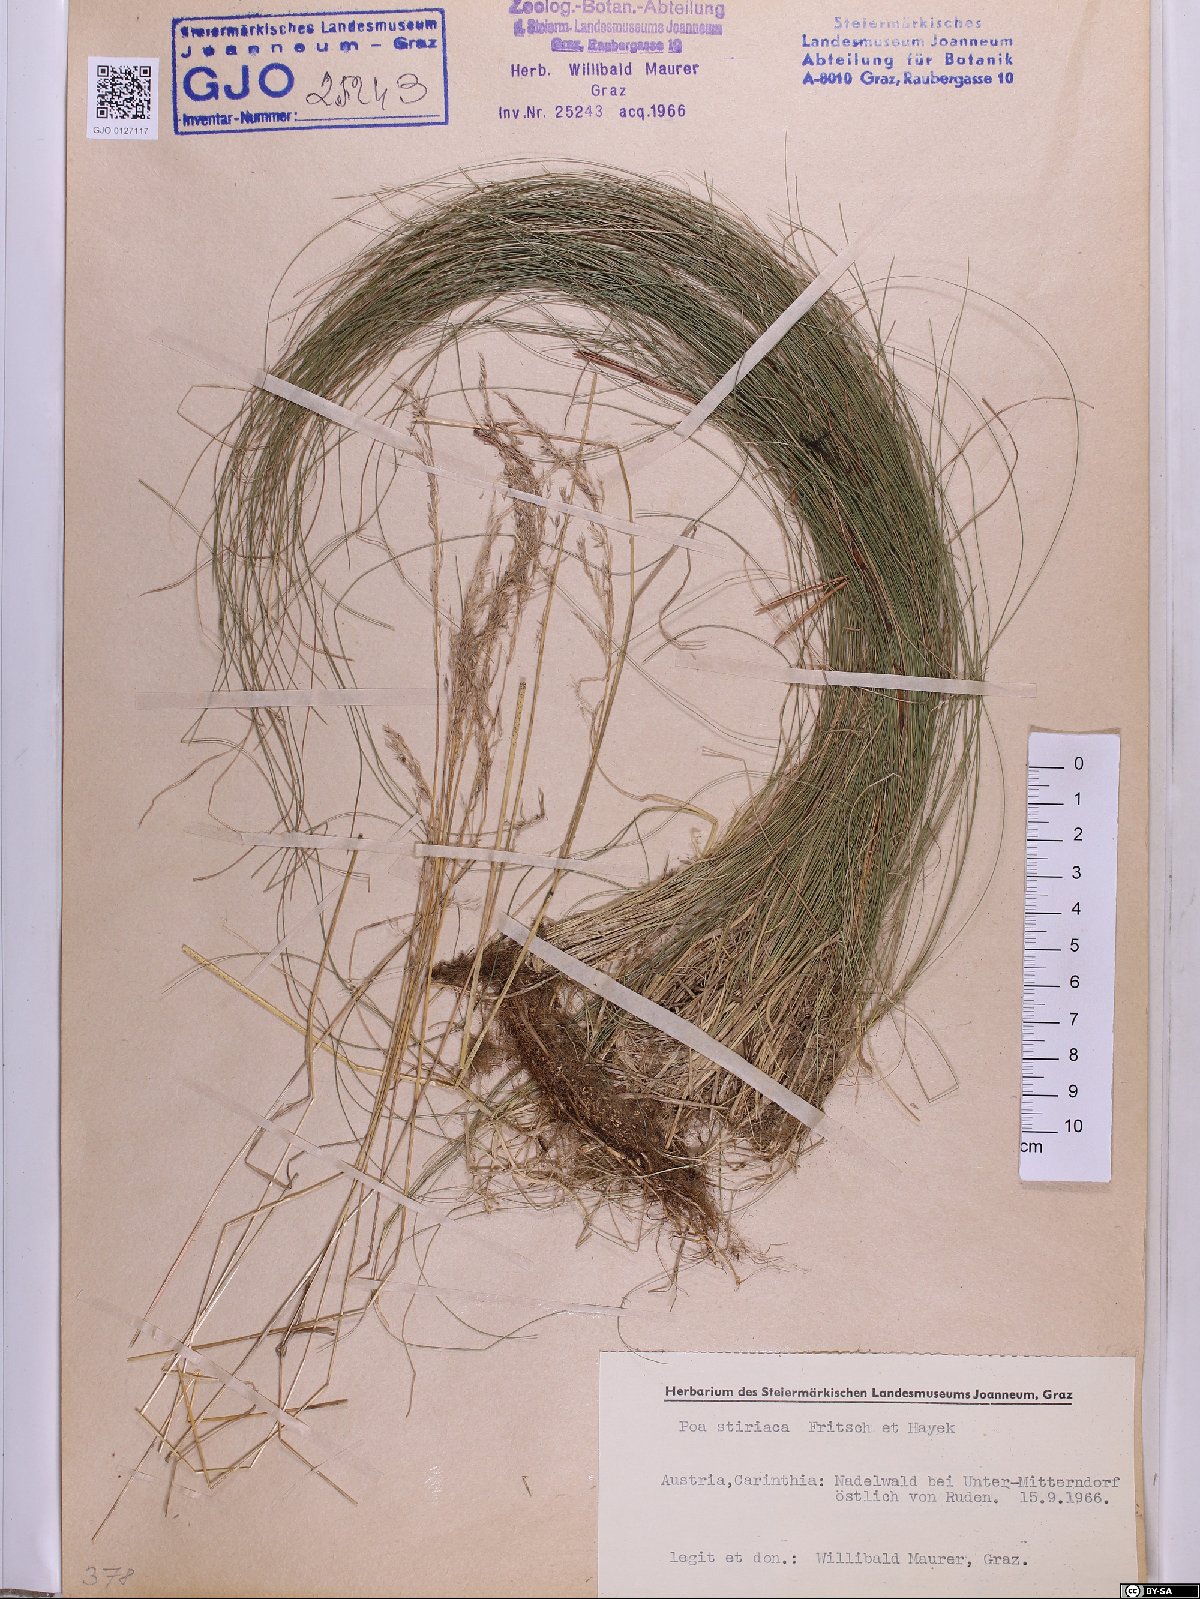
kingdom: Plantae
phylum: Tracheophyta
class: Liliopsida
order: Poales
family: Poaceae
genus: Poa
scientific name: Poa stiriaca
